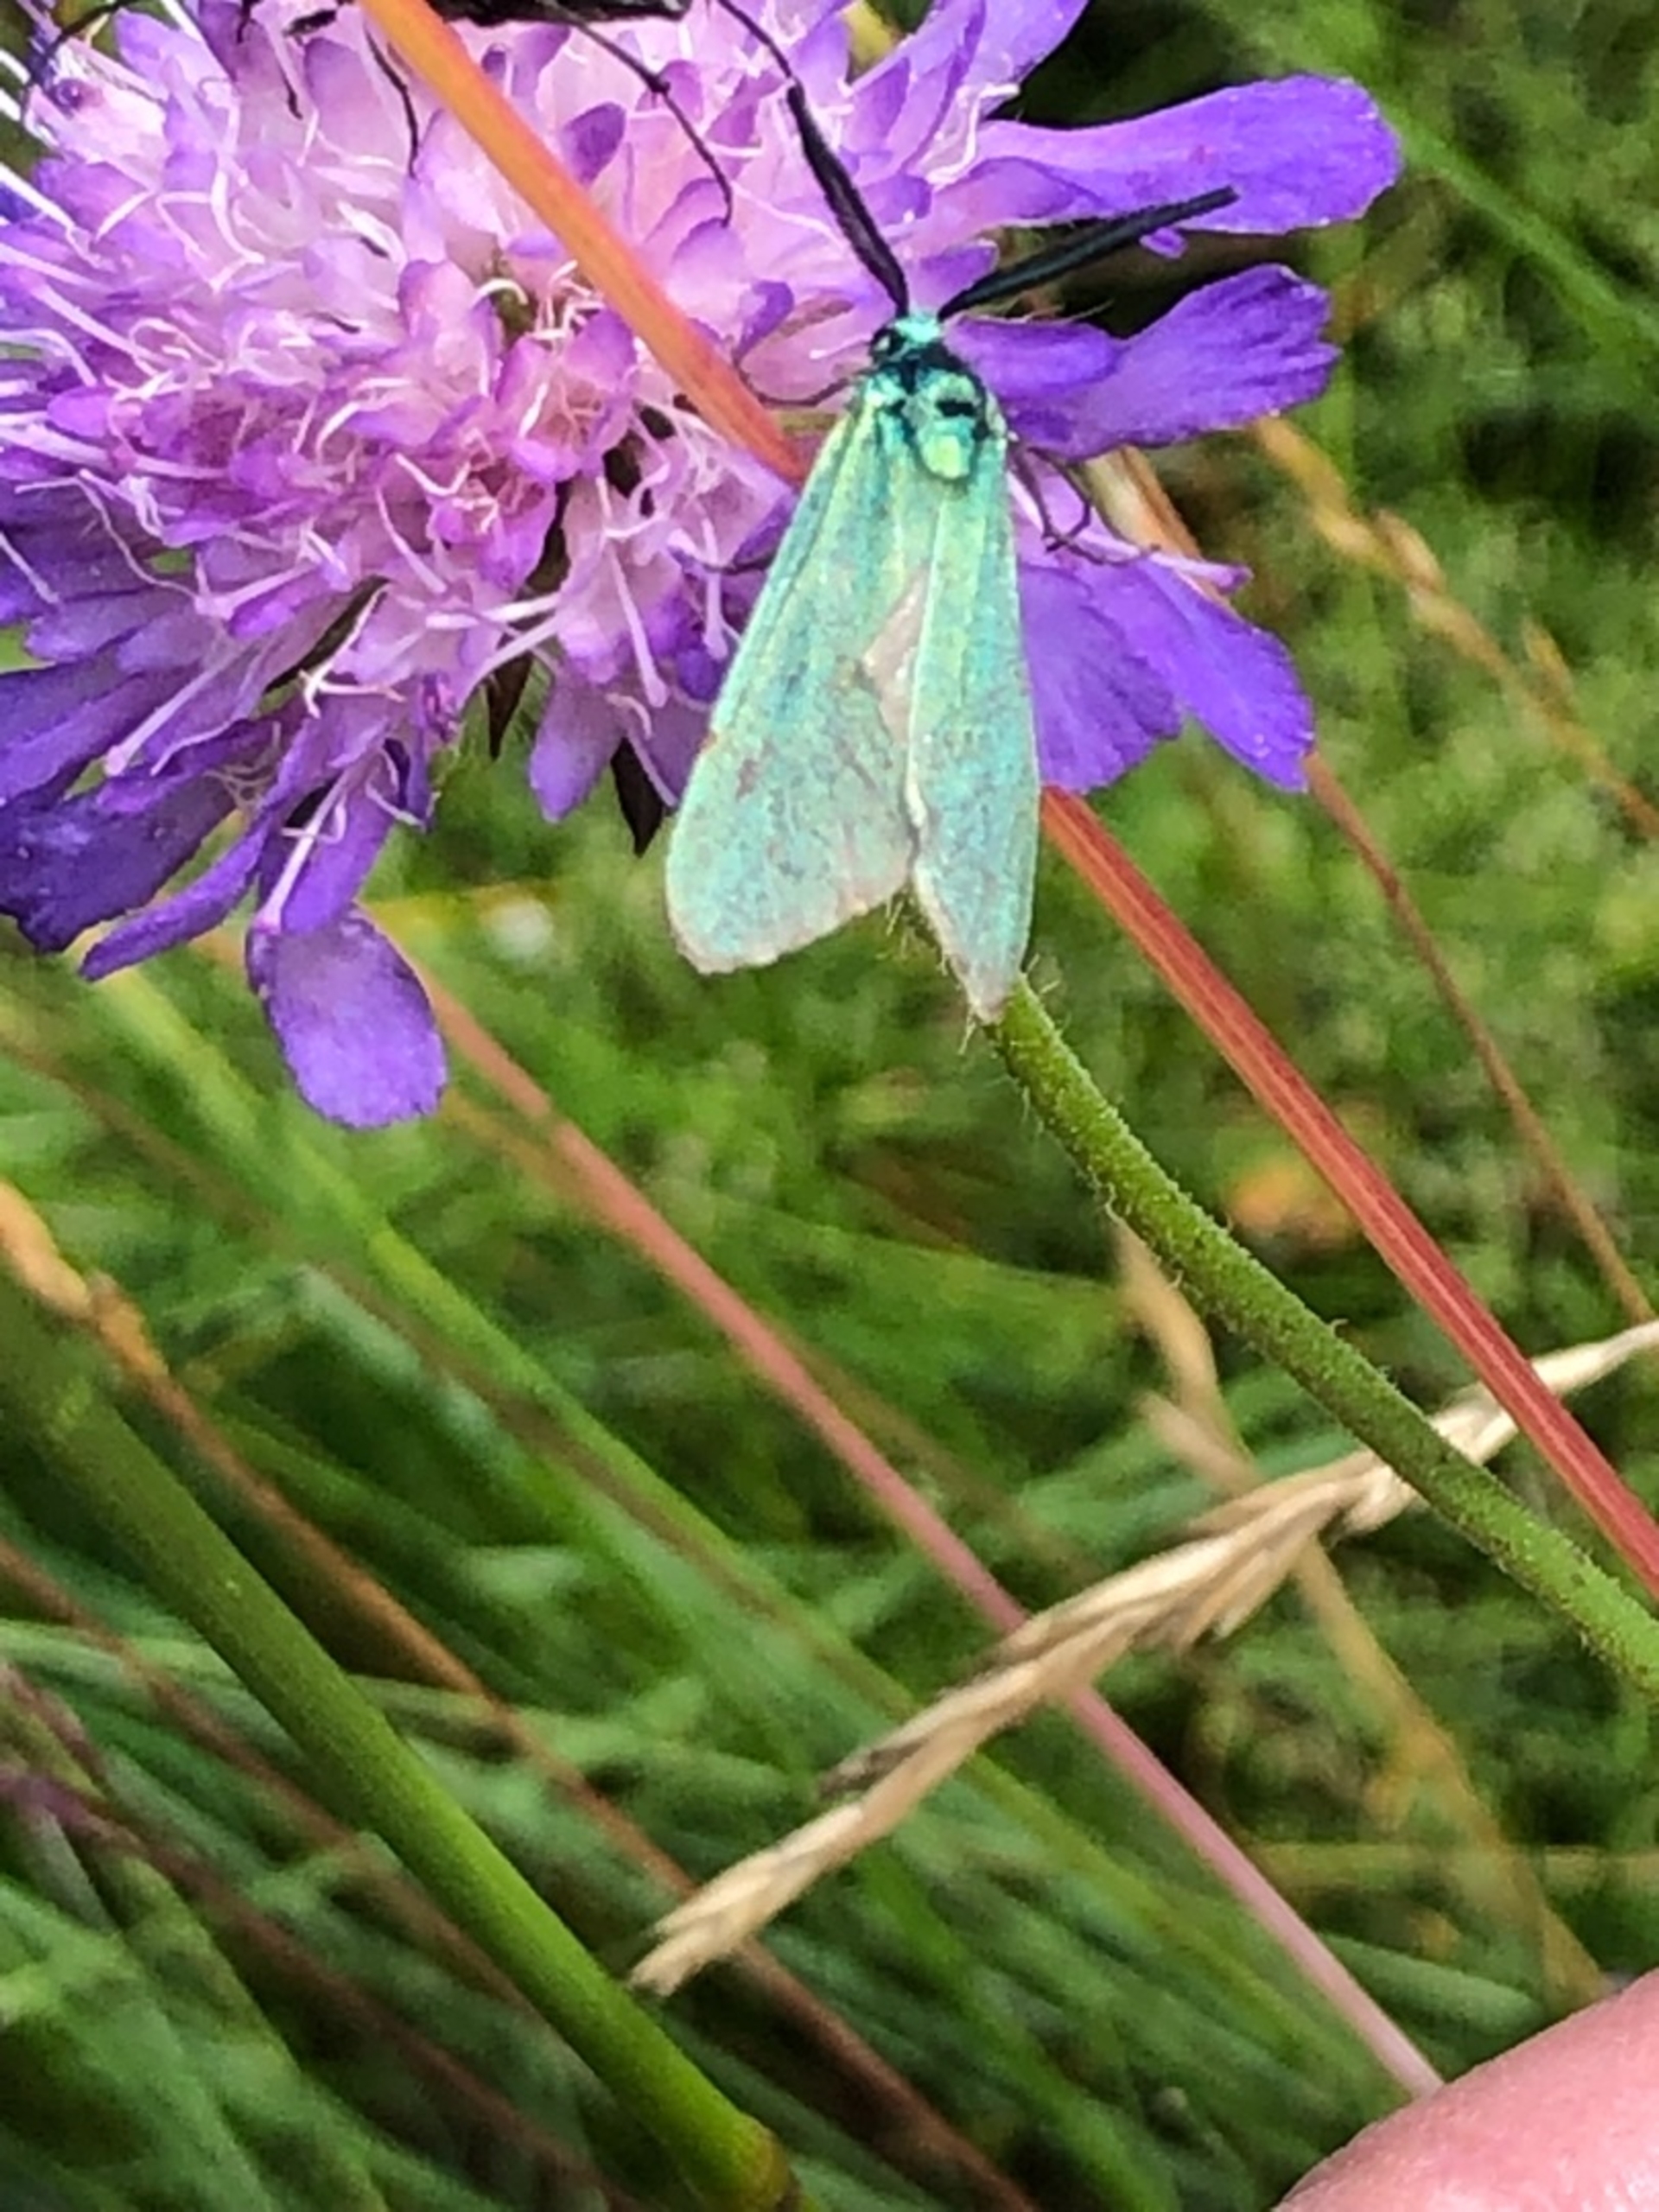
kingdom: Animalia
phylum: Arthropoda
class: Insecta
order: Lepidoptera
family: Zygaenidae
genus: Adscita
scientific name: Adscita statices
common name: Metalvinge
